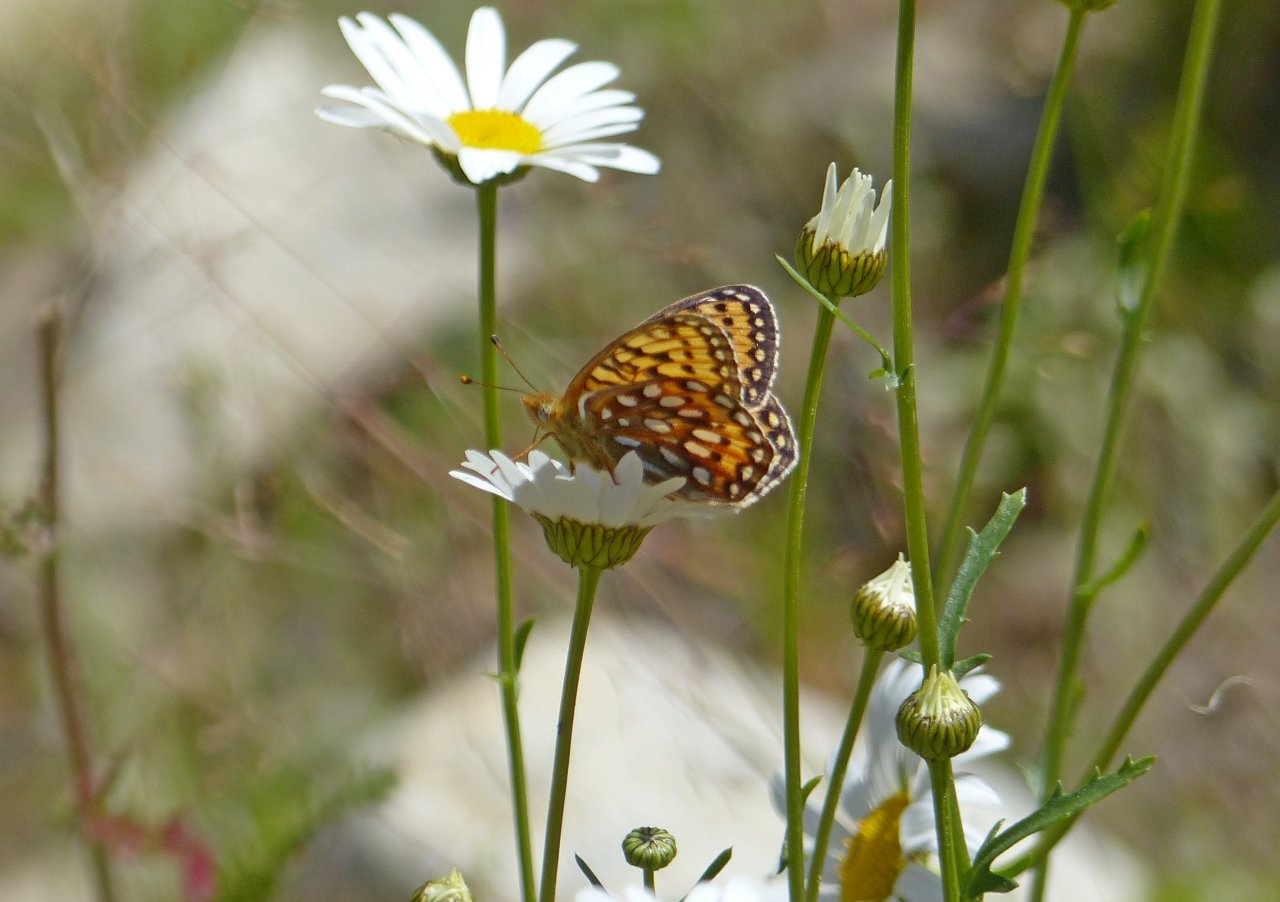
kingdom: Animalia
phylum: Arthropoda
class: Insecta
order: Lepidoptera
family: Nymphalidae
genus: Speyeria
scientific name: Speyeria hydaspe
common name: Hydaspe Fritillary
